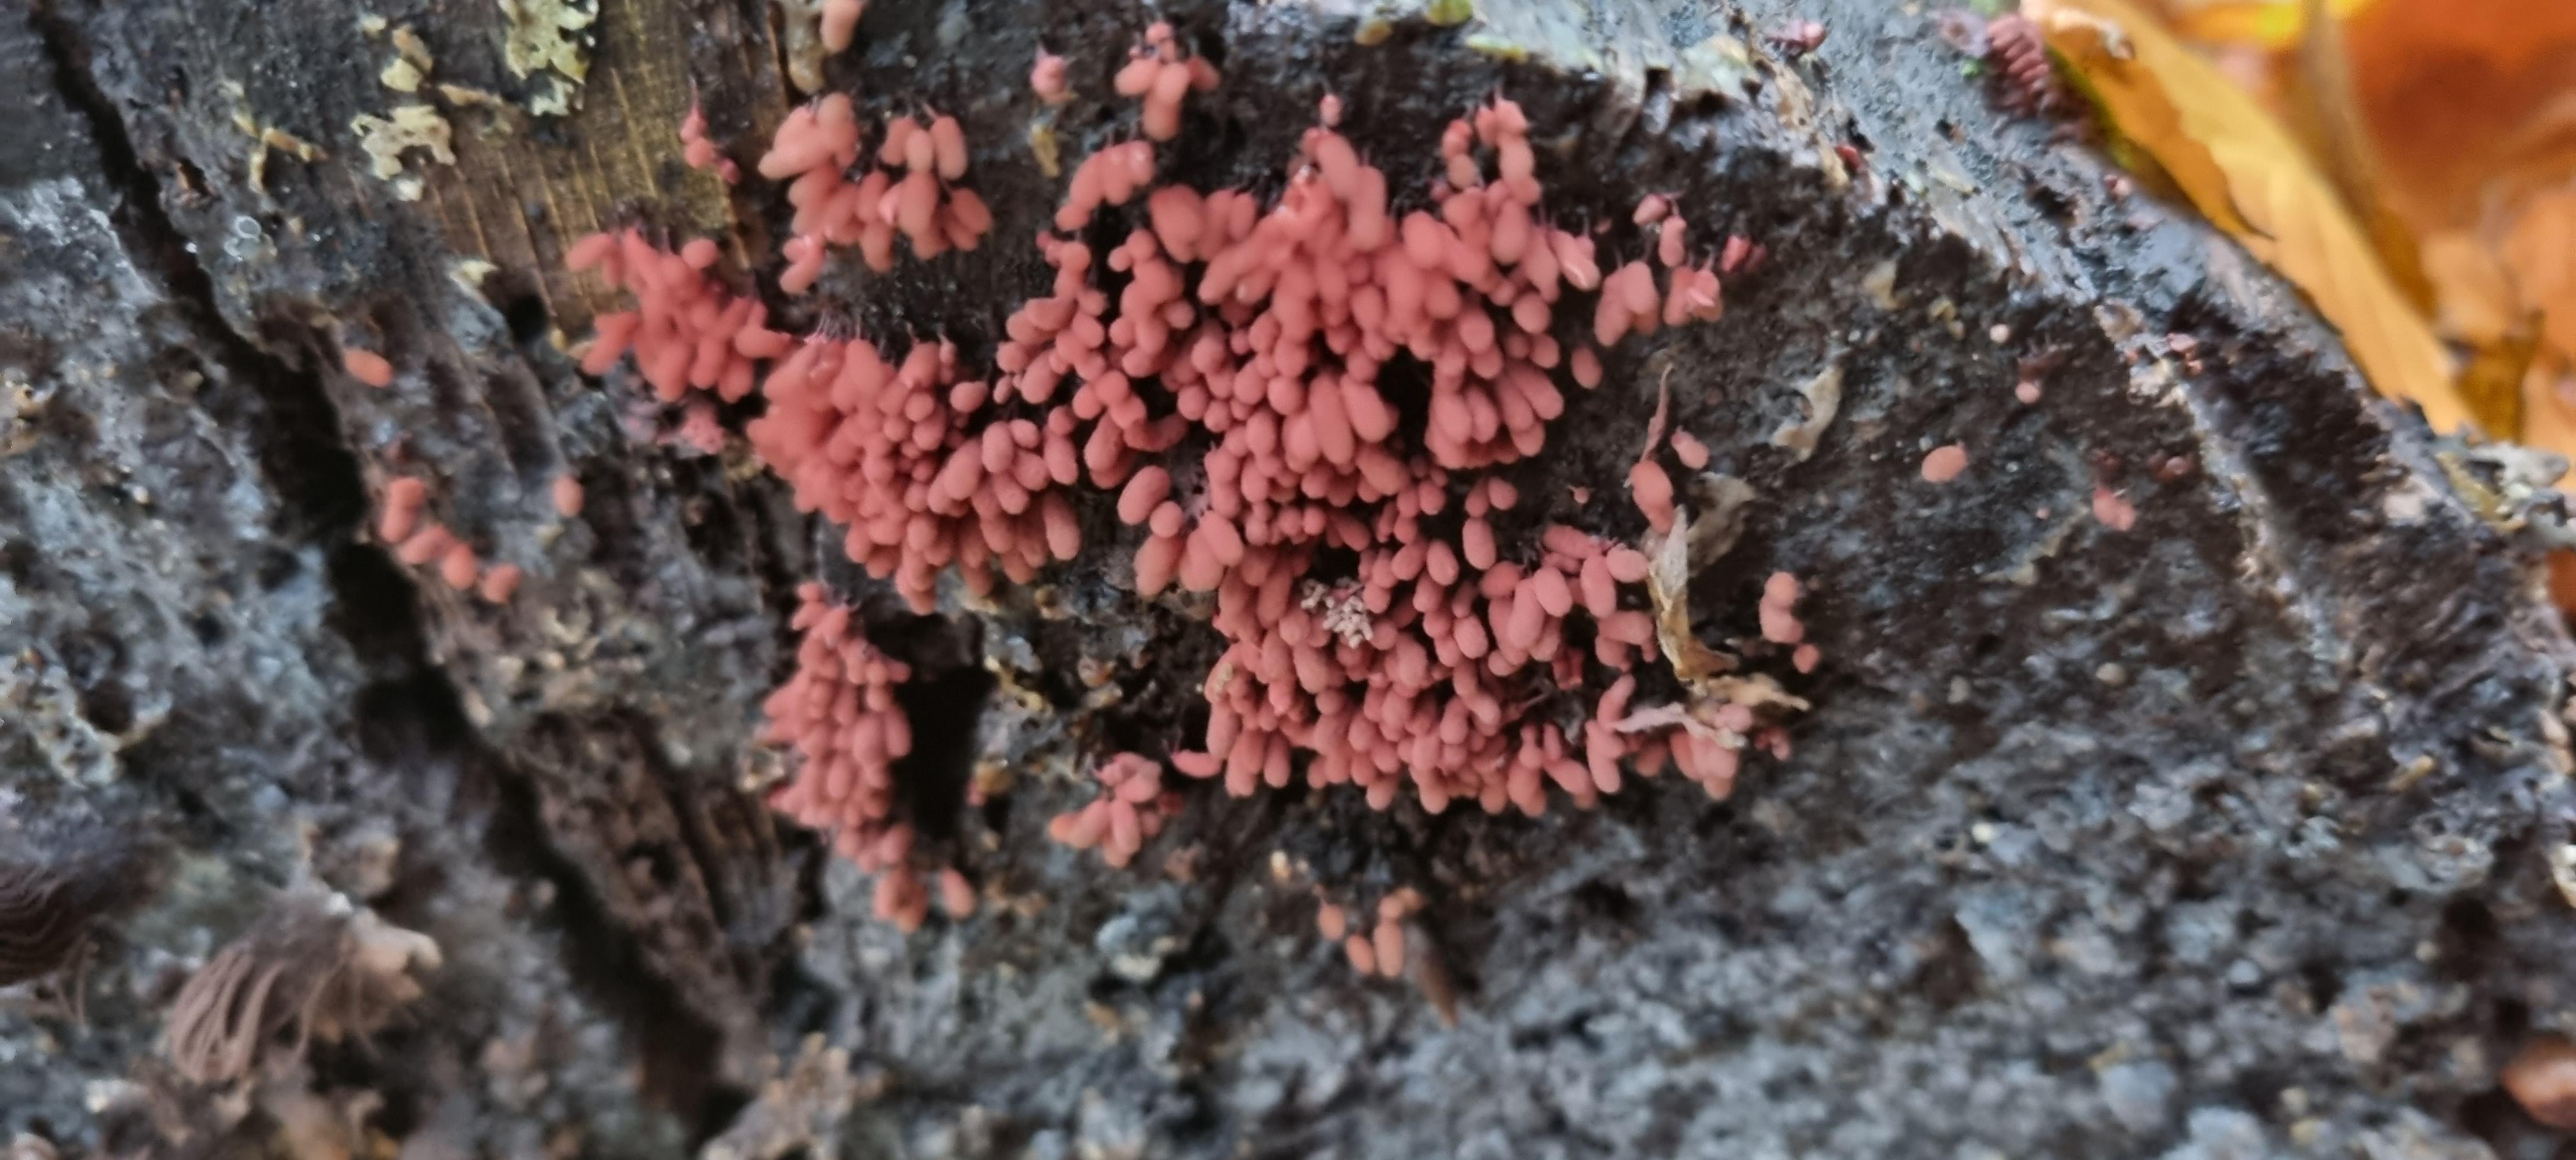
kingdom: Protozoa
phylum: Amoebozoa
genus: Arcyria
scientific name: Arcyria
